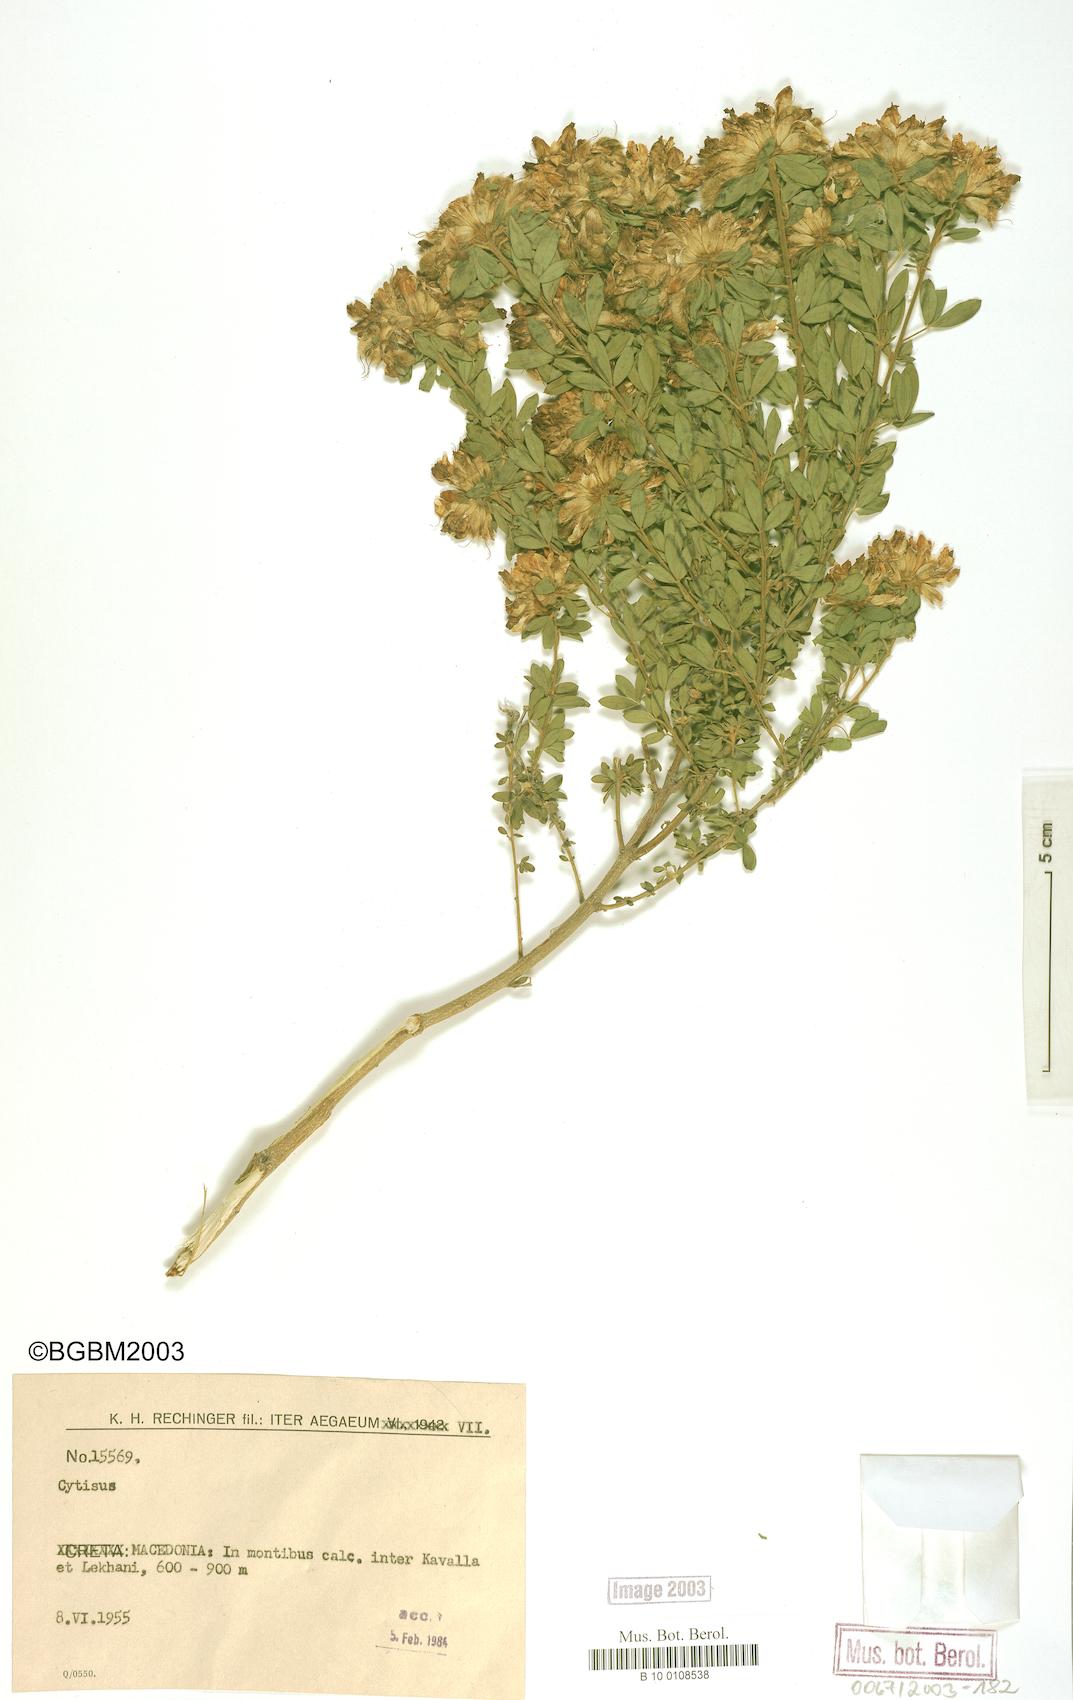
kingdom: Plantae
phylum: Tracheophyta
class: Magnoliopsida
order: Fabales
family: Fabaceae
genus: Cytisus
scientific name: Cytisus
